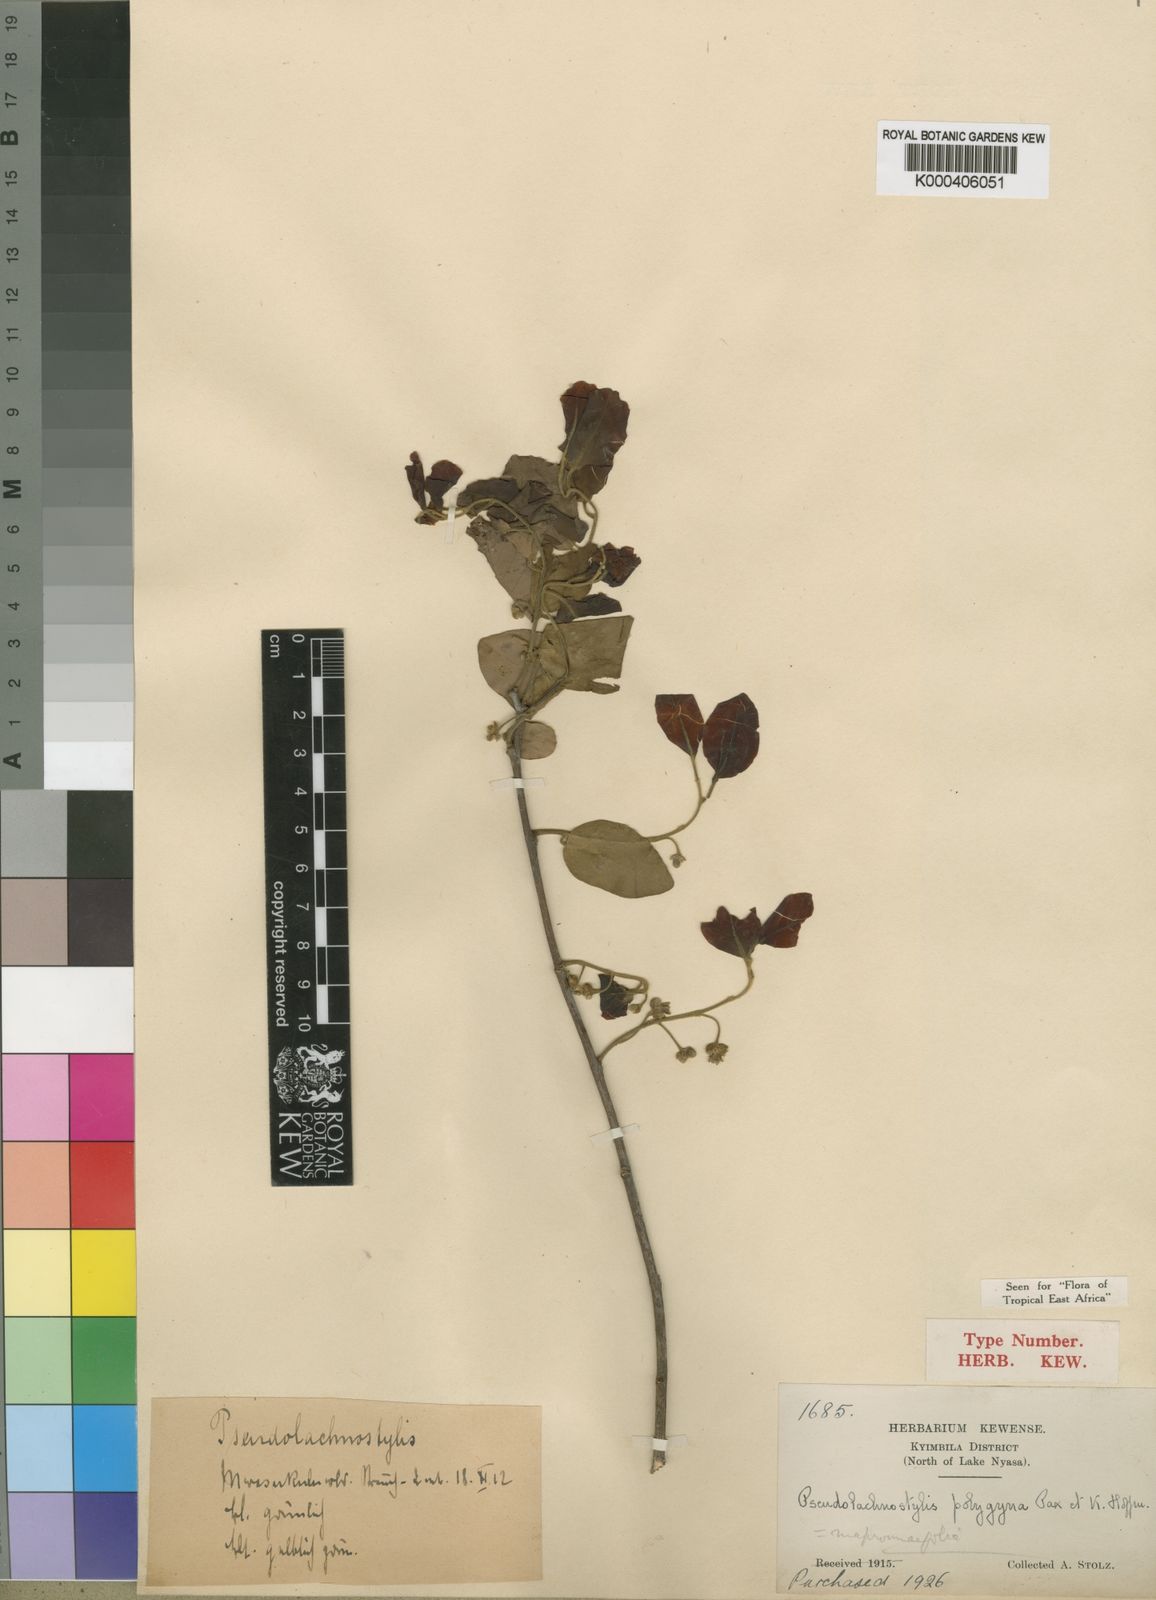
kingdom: Plantae
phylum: Tracheophyta
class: Magnoliopsida
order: Malpighiales
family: Phyllanthaceae
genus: Pseudolachnostylis
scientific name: Pseudolachnostylis maprouneifolia
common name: Kudu berry
